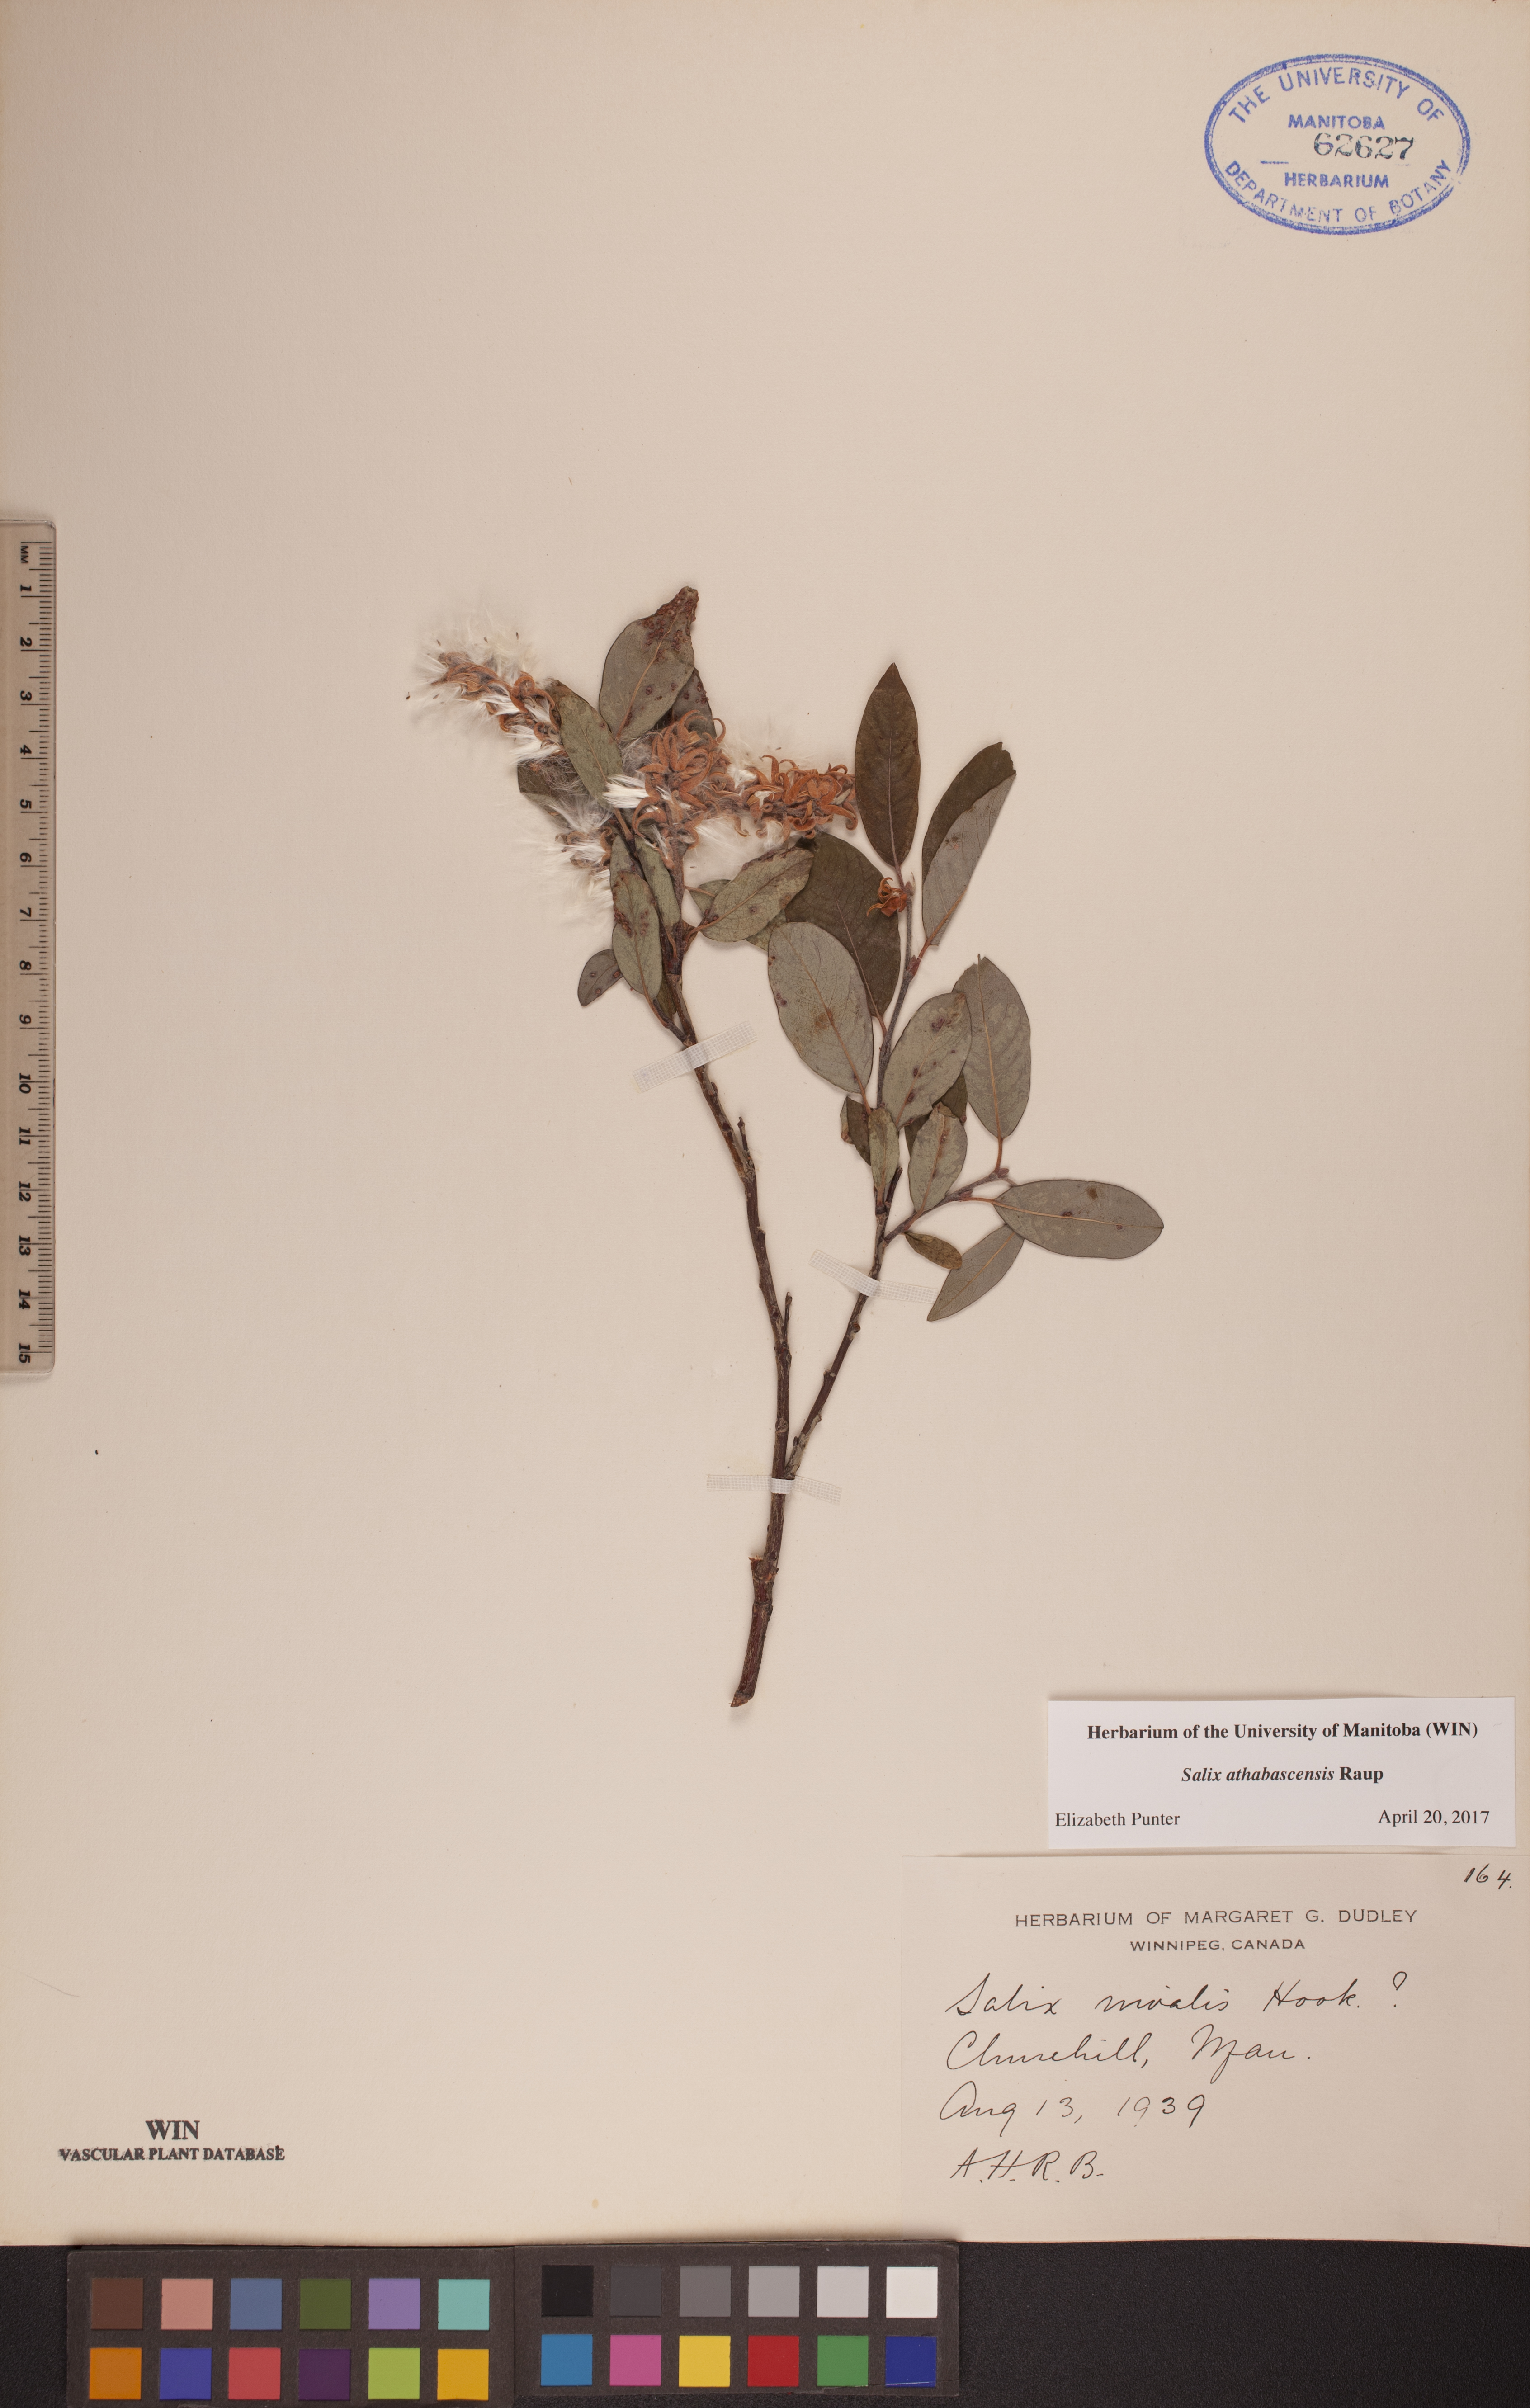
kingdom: Plantae
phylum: Tracheophyta
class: Magnoliopsida
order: Malpighiales
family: Salicaceae
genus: Salix
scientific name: Salix athabascensis
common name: Athabasca willow
